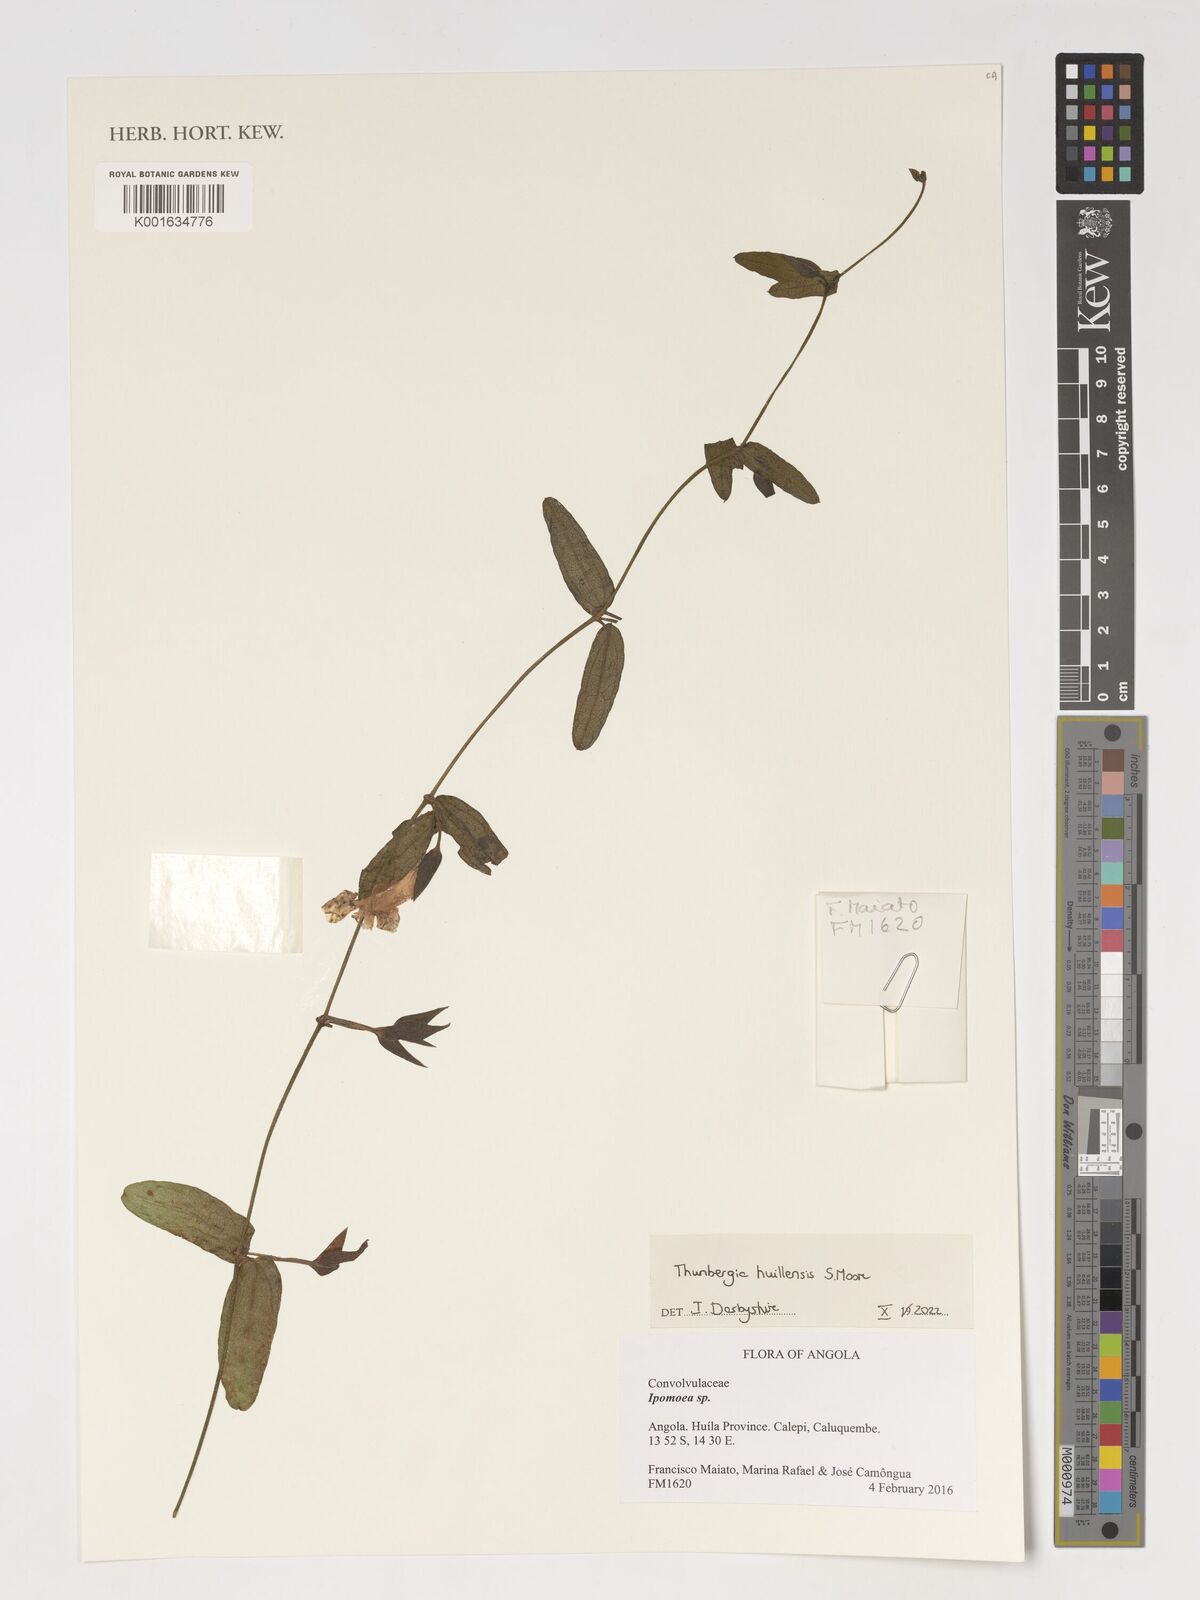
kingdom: Plantae
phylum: Tracheophyta
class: Magnoliopsida
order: Lamiales
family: Acanthaceae
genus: Thunbergia
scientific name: Thunbergia huillensis
